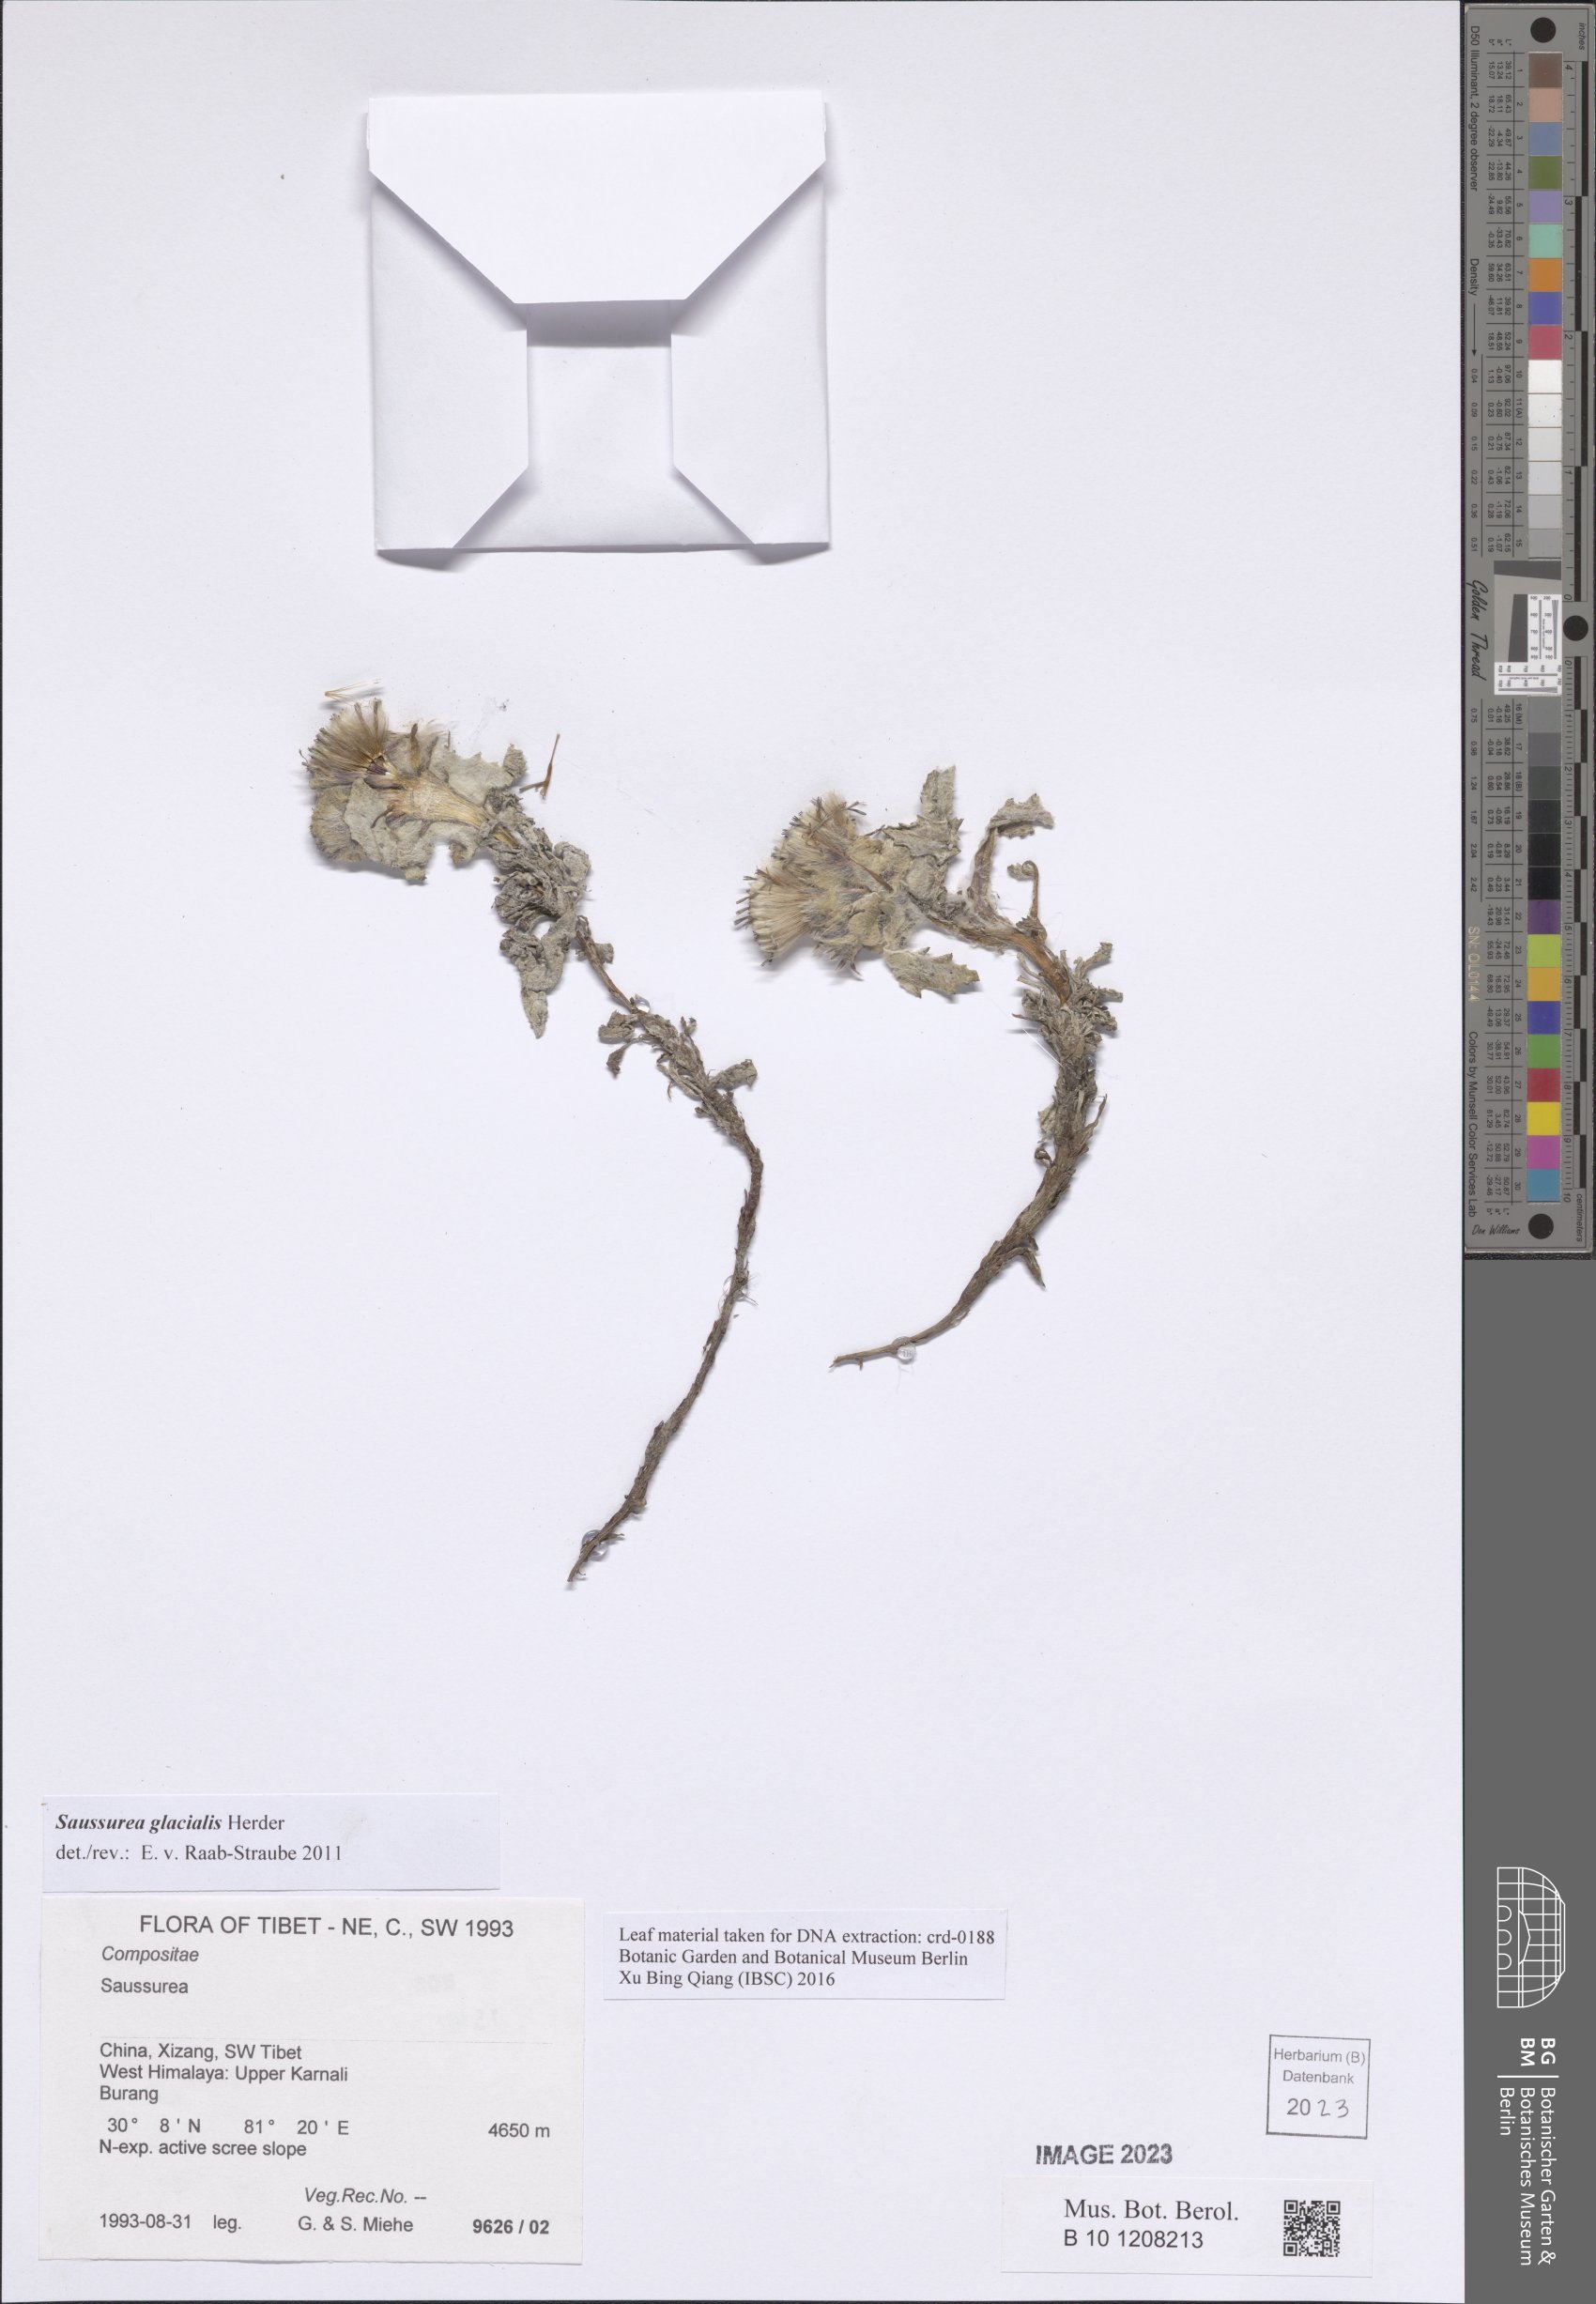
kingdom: Plantae
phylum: Tracheophyta
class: Magnoliopsida
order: Asterales
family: Asteraceae
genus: Saussurea
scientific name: Saussurea glacialis
